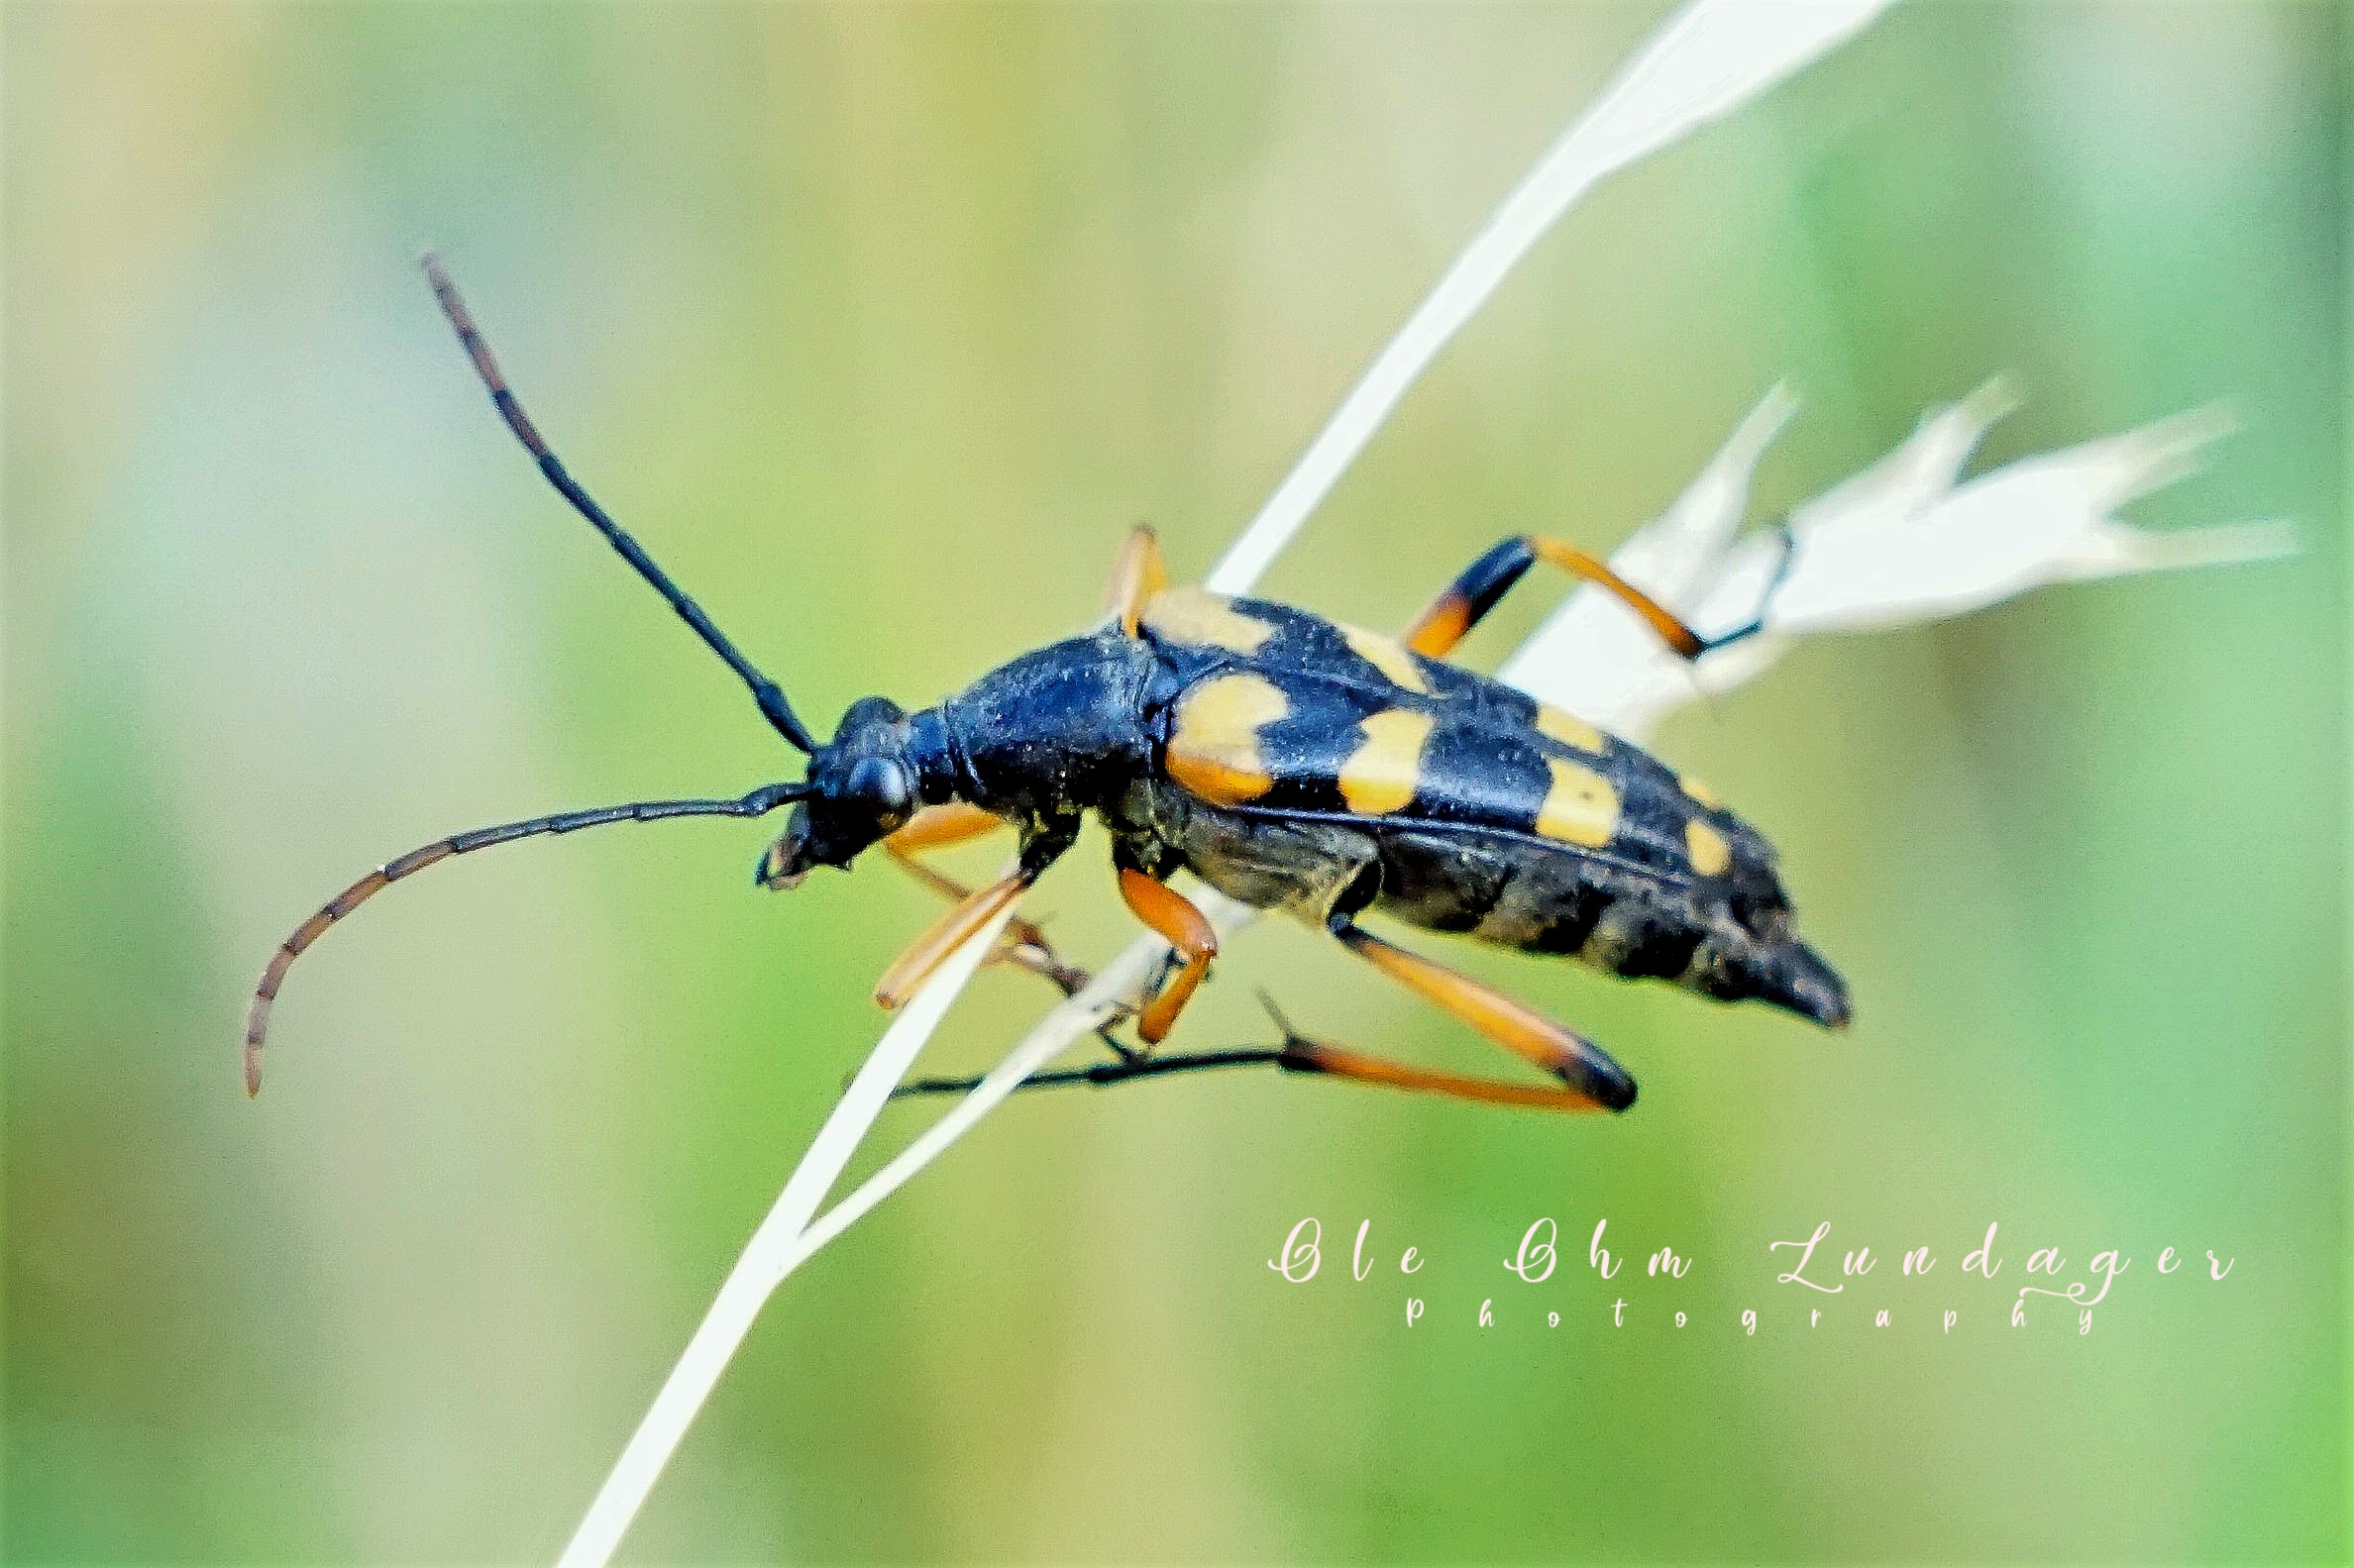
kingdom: Animalia
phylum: Arthropoda
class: Insecta
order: Coleoptera
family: Cerambycidae
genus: Strangalia
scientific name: Strangalia attenuata
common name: Smal blomsterbuk
